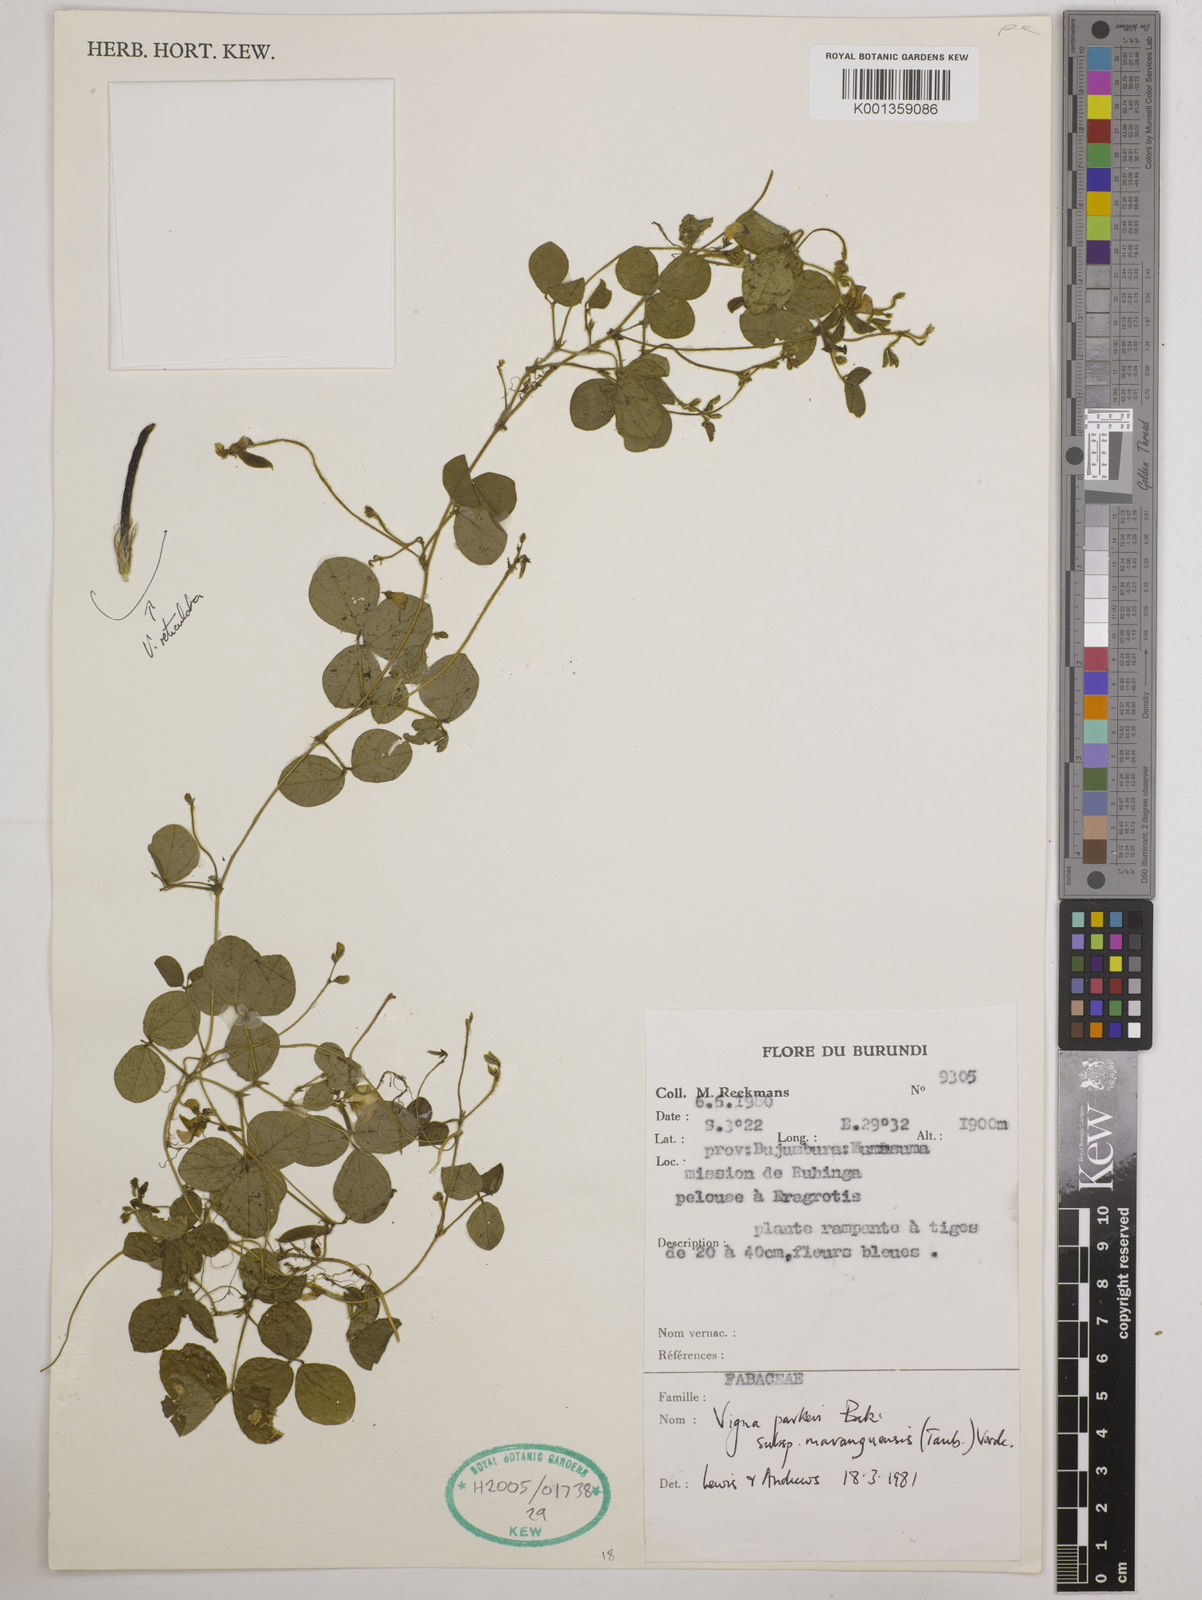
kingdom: Plantae
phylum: Tracheophyta
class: Magnoliopsida
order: Fabales
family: Fabaceae
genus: Vigna
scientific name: Vigna
